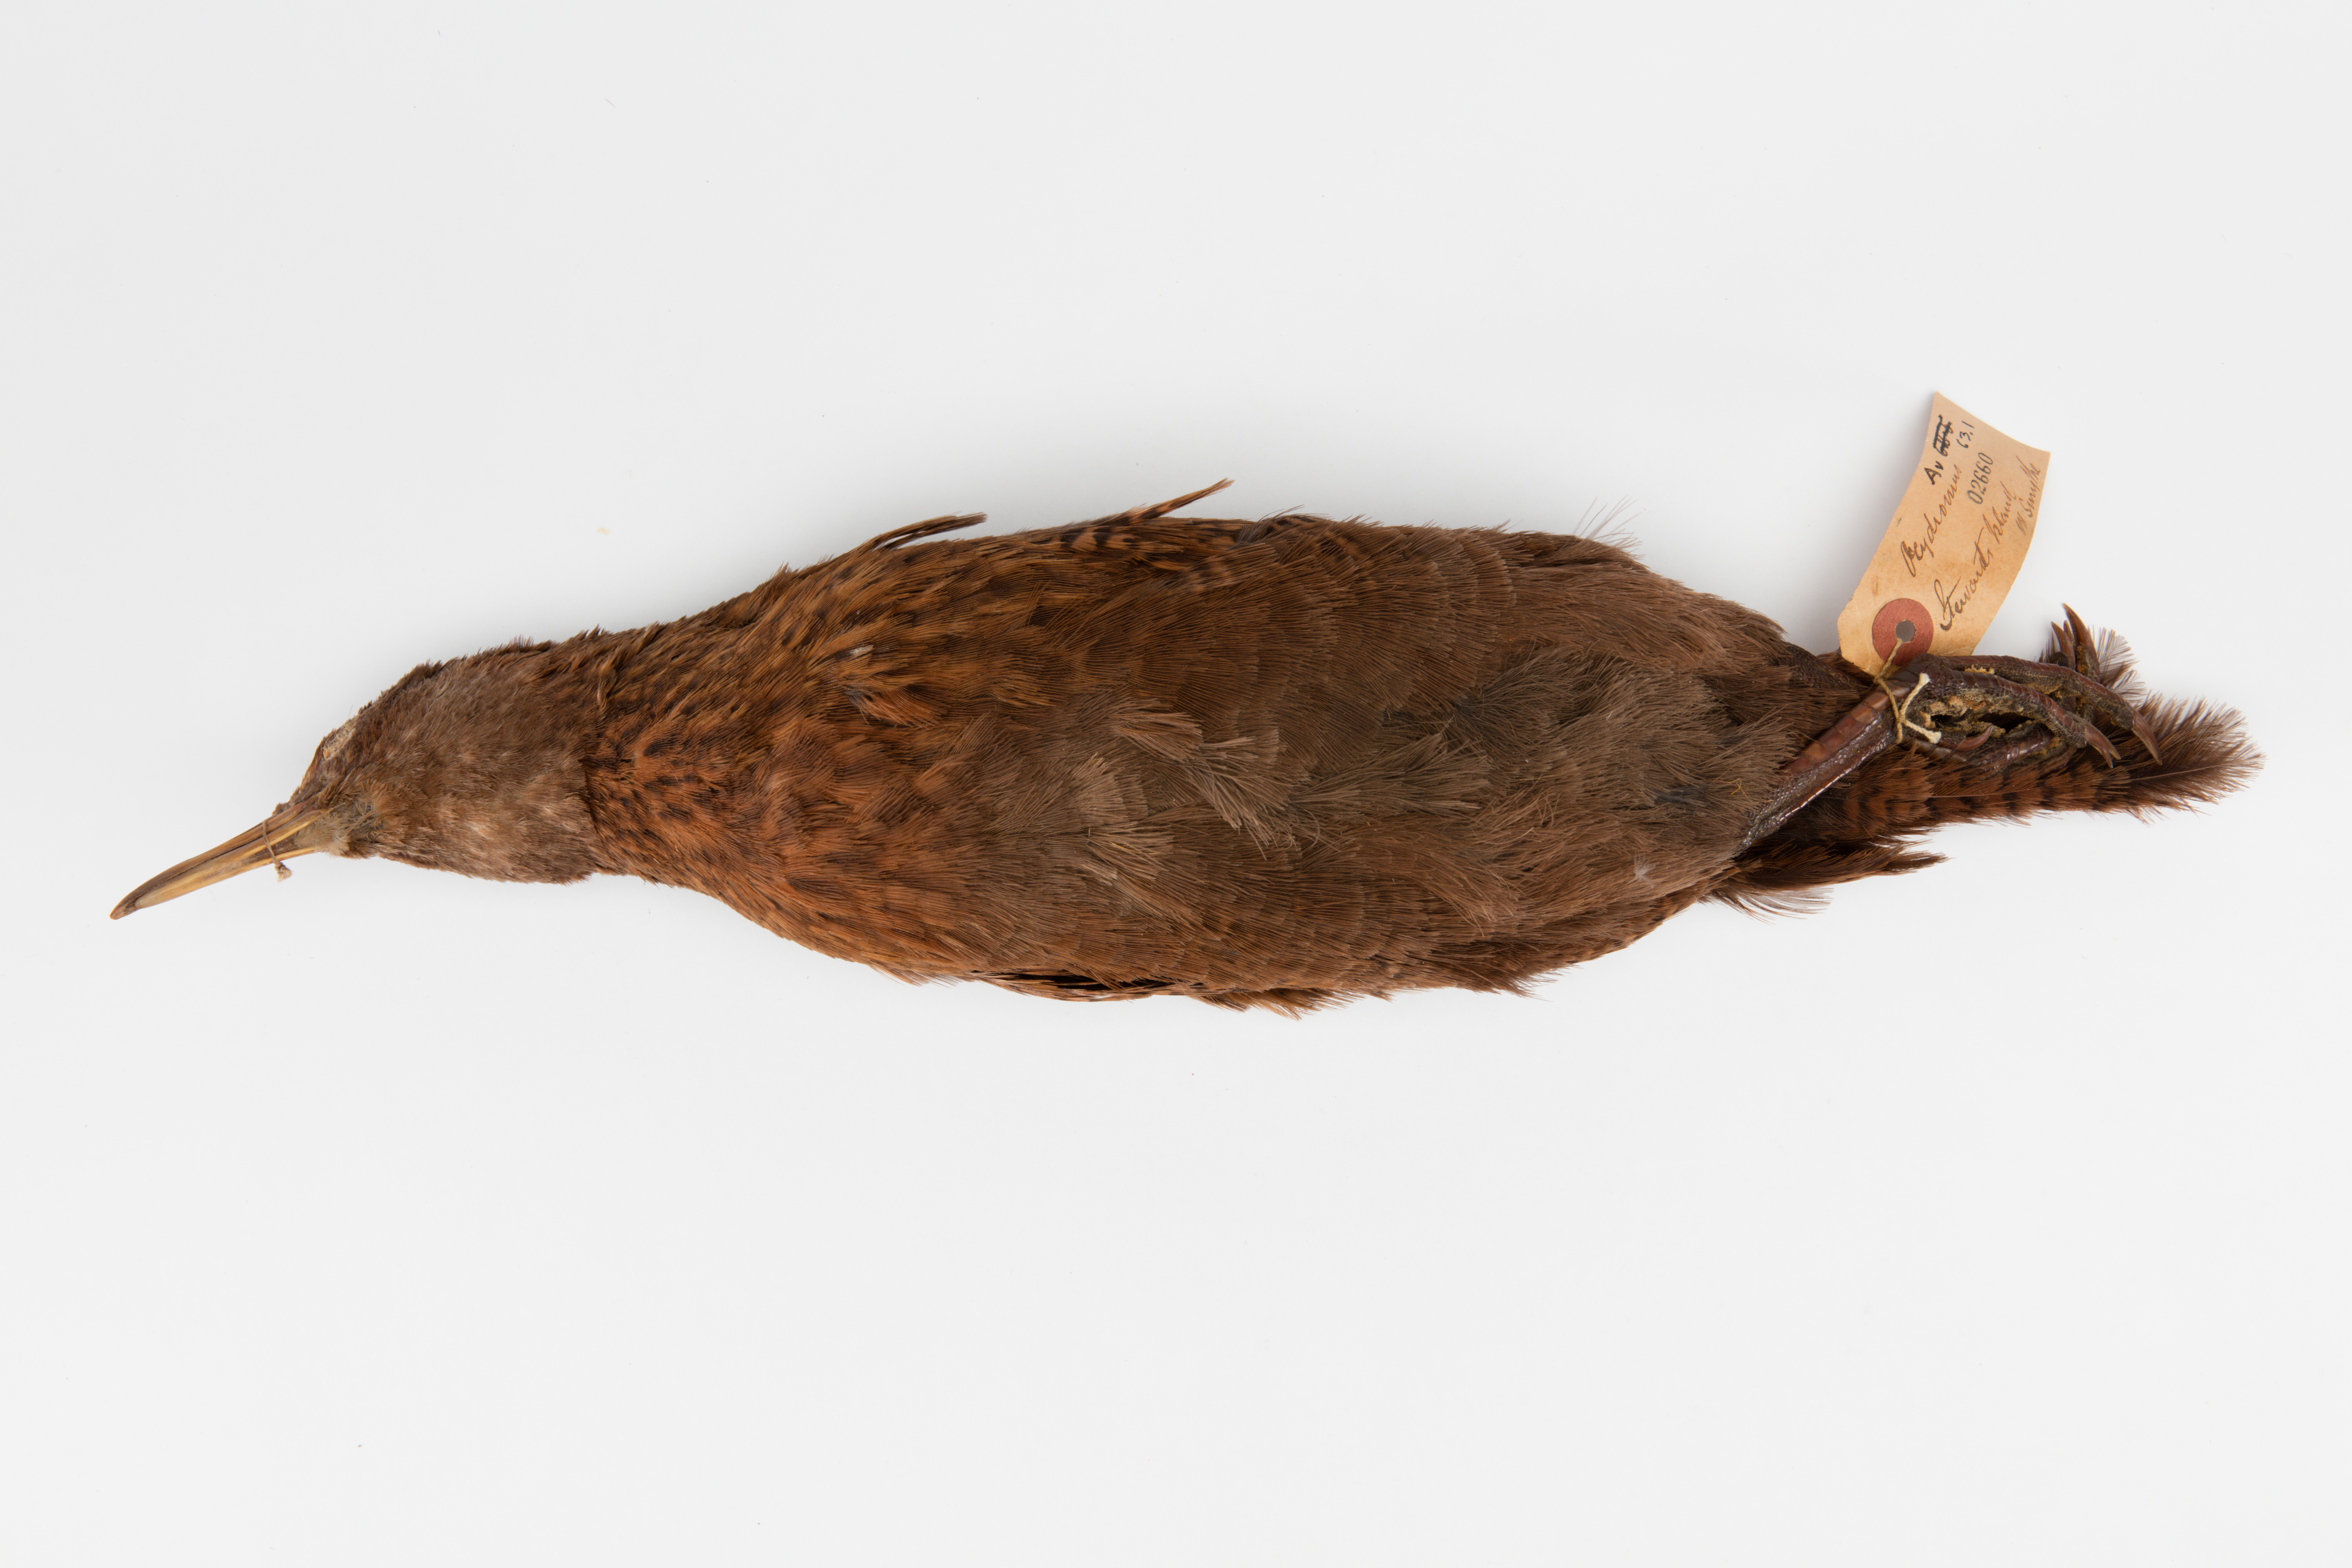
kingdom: Animalia
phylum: Chordata
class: Aves
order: Gruiformes
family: Rallidae
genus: Gallirallus
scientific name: Gallirallus australis
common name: Weka
